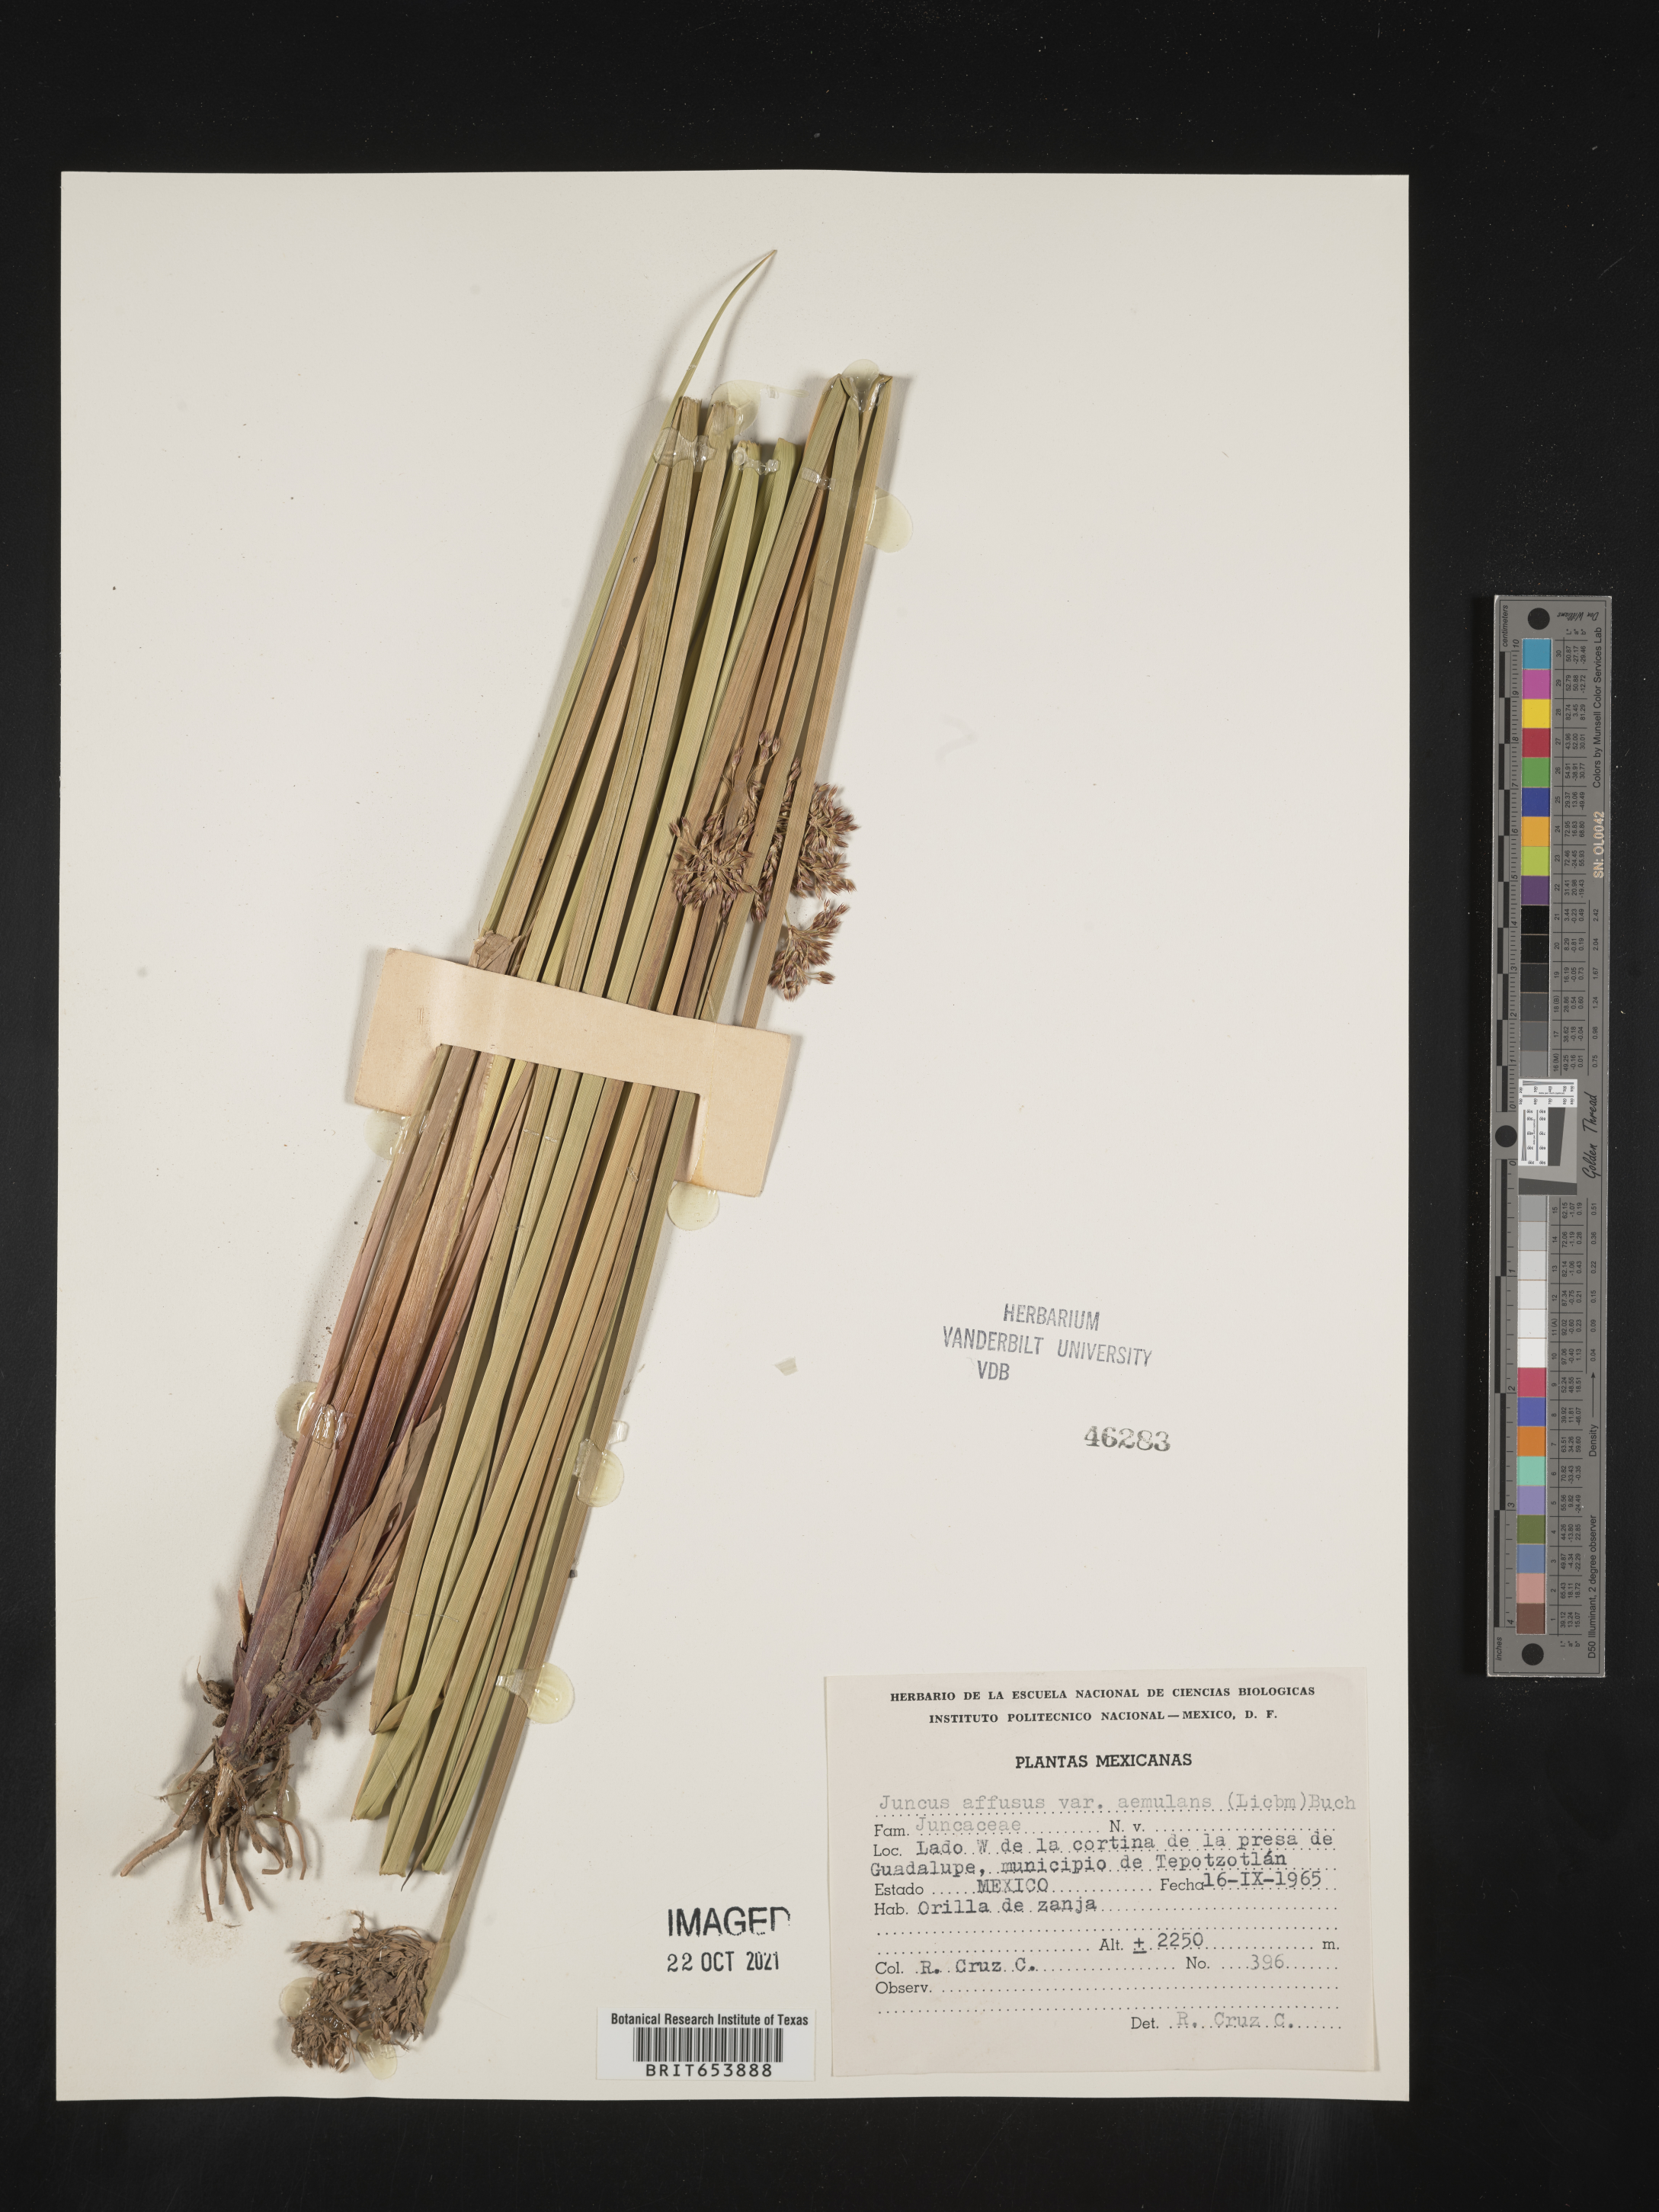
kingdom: Plantae
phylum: Tracheophyta
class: Liliopsida
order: Poales
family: Juncaceae
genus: Juncus
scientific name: Juncus
